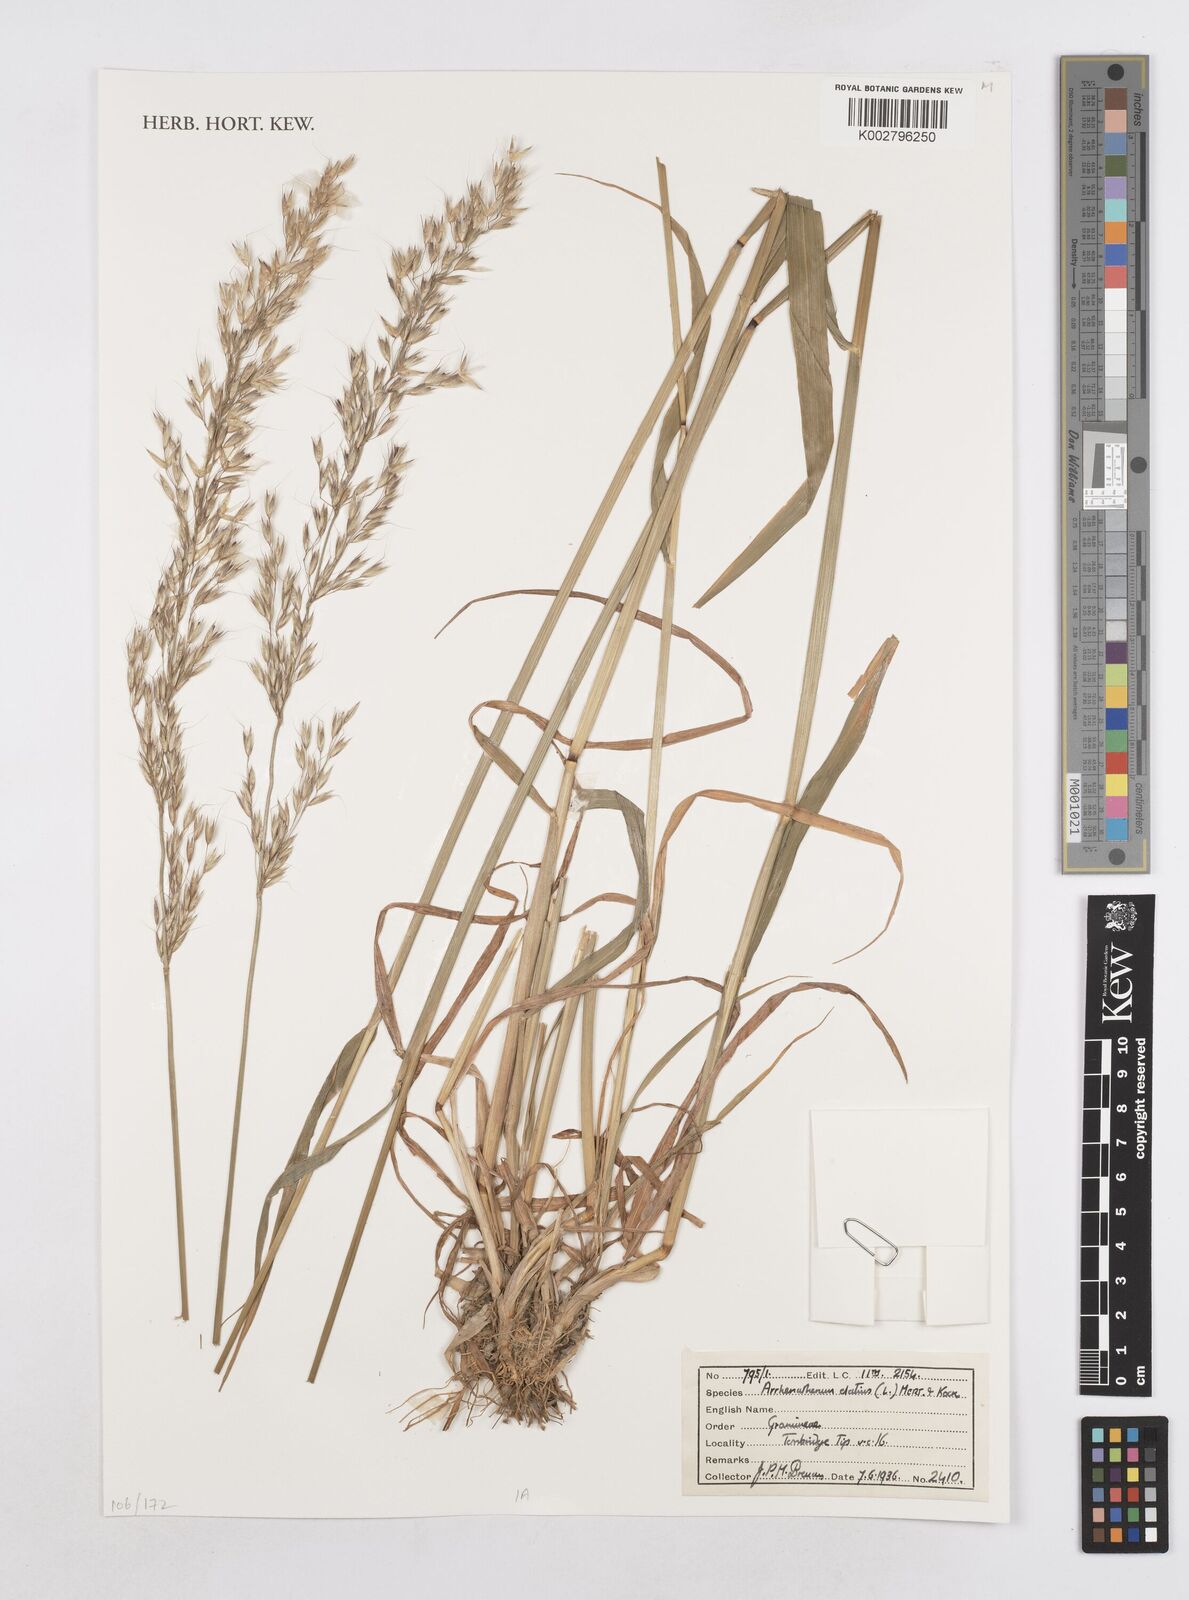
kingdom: Plantae
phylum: Tracheophyta
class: Liliopsida
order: Poales
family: Poaceae
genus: Arrhenatherum
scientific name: Arrhenatherum elatius
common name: Tall oatgrass
